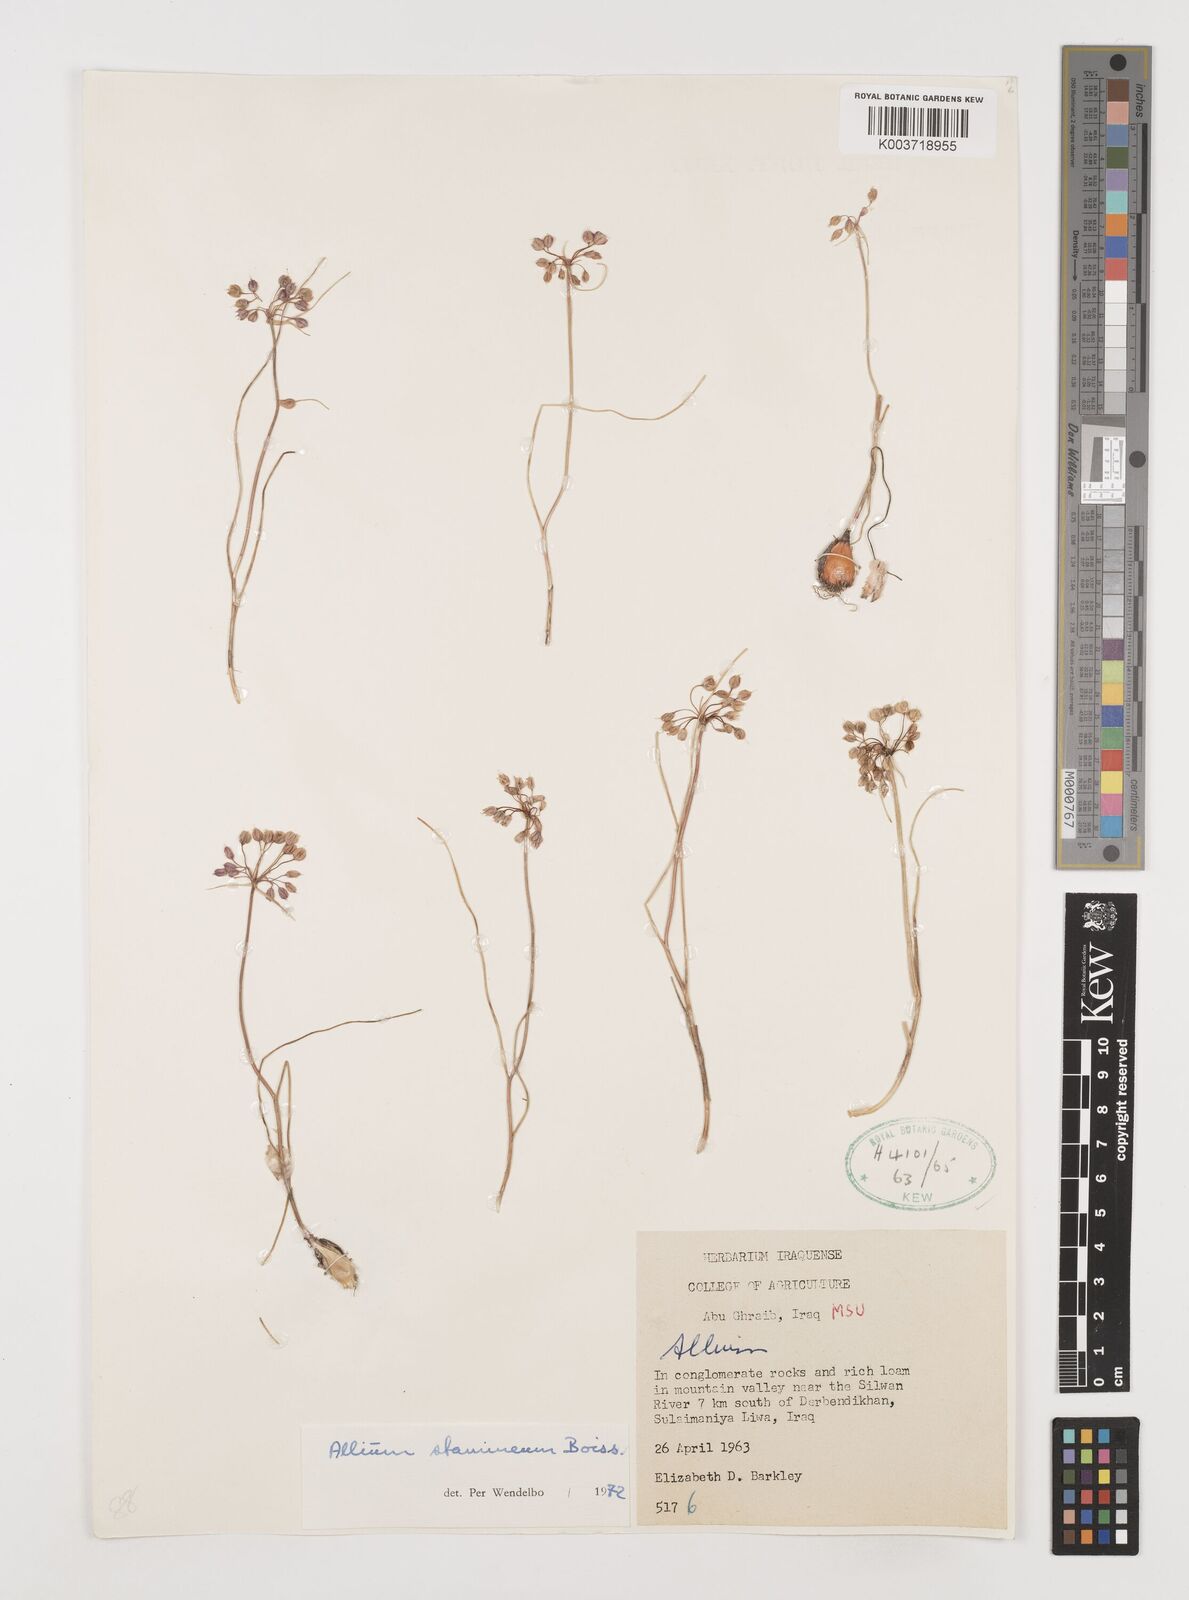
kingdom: Plantae
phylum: Tracheophyta
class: Liliopsida
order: Asparagales
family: Amaryllidaceae
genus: Allium
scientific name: Allium stamineum
